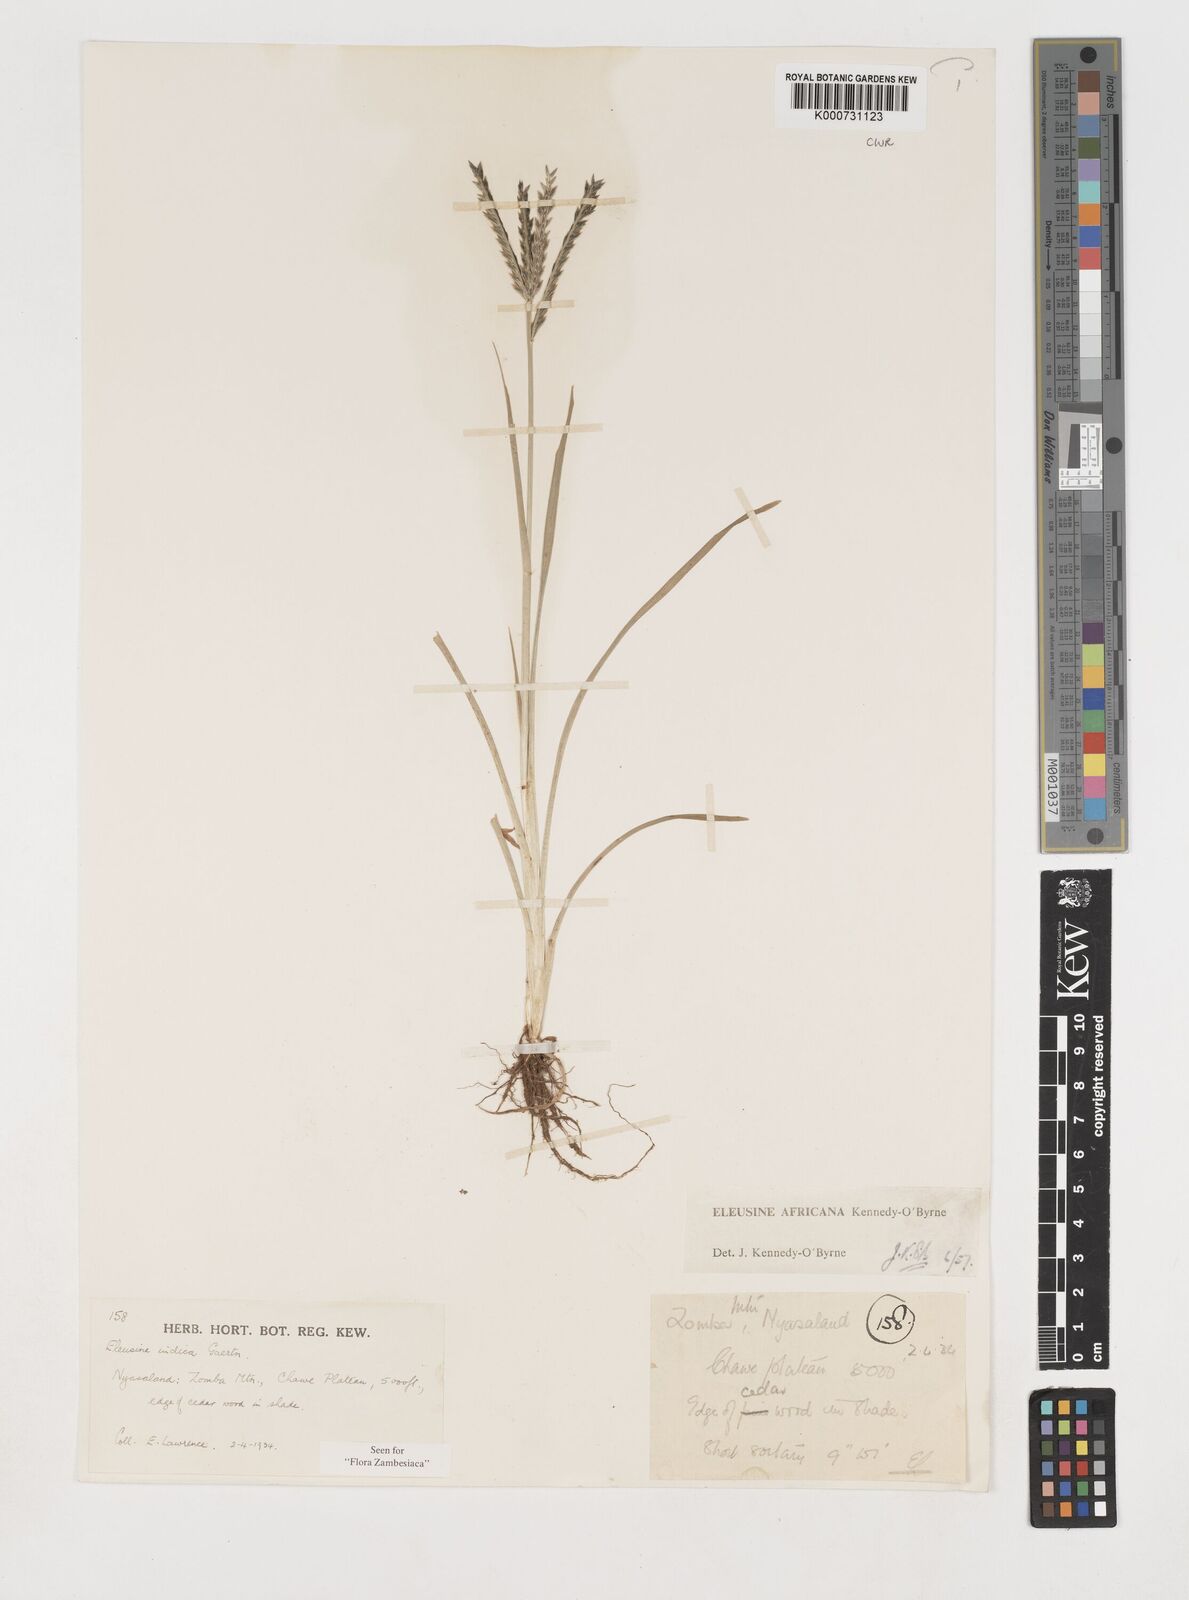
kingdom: Plantae
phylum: Tracheophyta
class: Liliopsida
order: Poales
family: Poaceae
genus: Eleusine
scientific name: Eleusine
